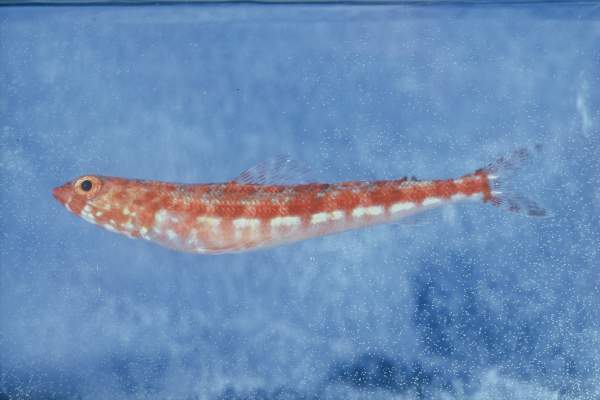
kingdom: Animalia
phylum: Chordata
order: Aulopiformes
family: Synodontidae
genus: Synodus
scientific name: Synodus variegatus
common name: Variegated lizardfish
